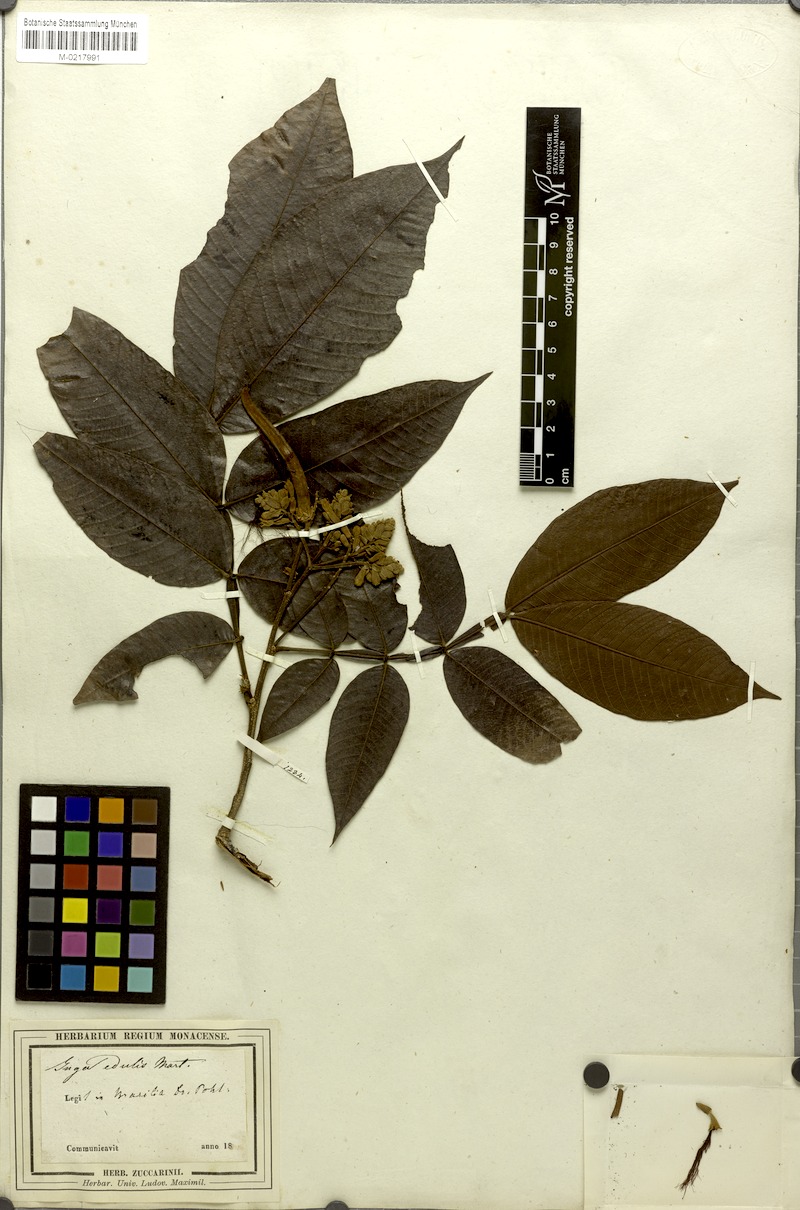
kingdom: Plantae
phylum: Tracheophyta
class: Magnoliopsida
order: Fabales
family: Fabaceae
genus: Inga
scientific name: Inga edulis
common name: Ice cream bean
